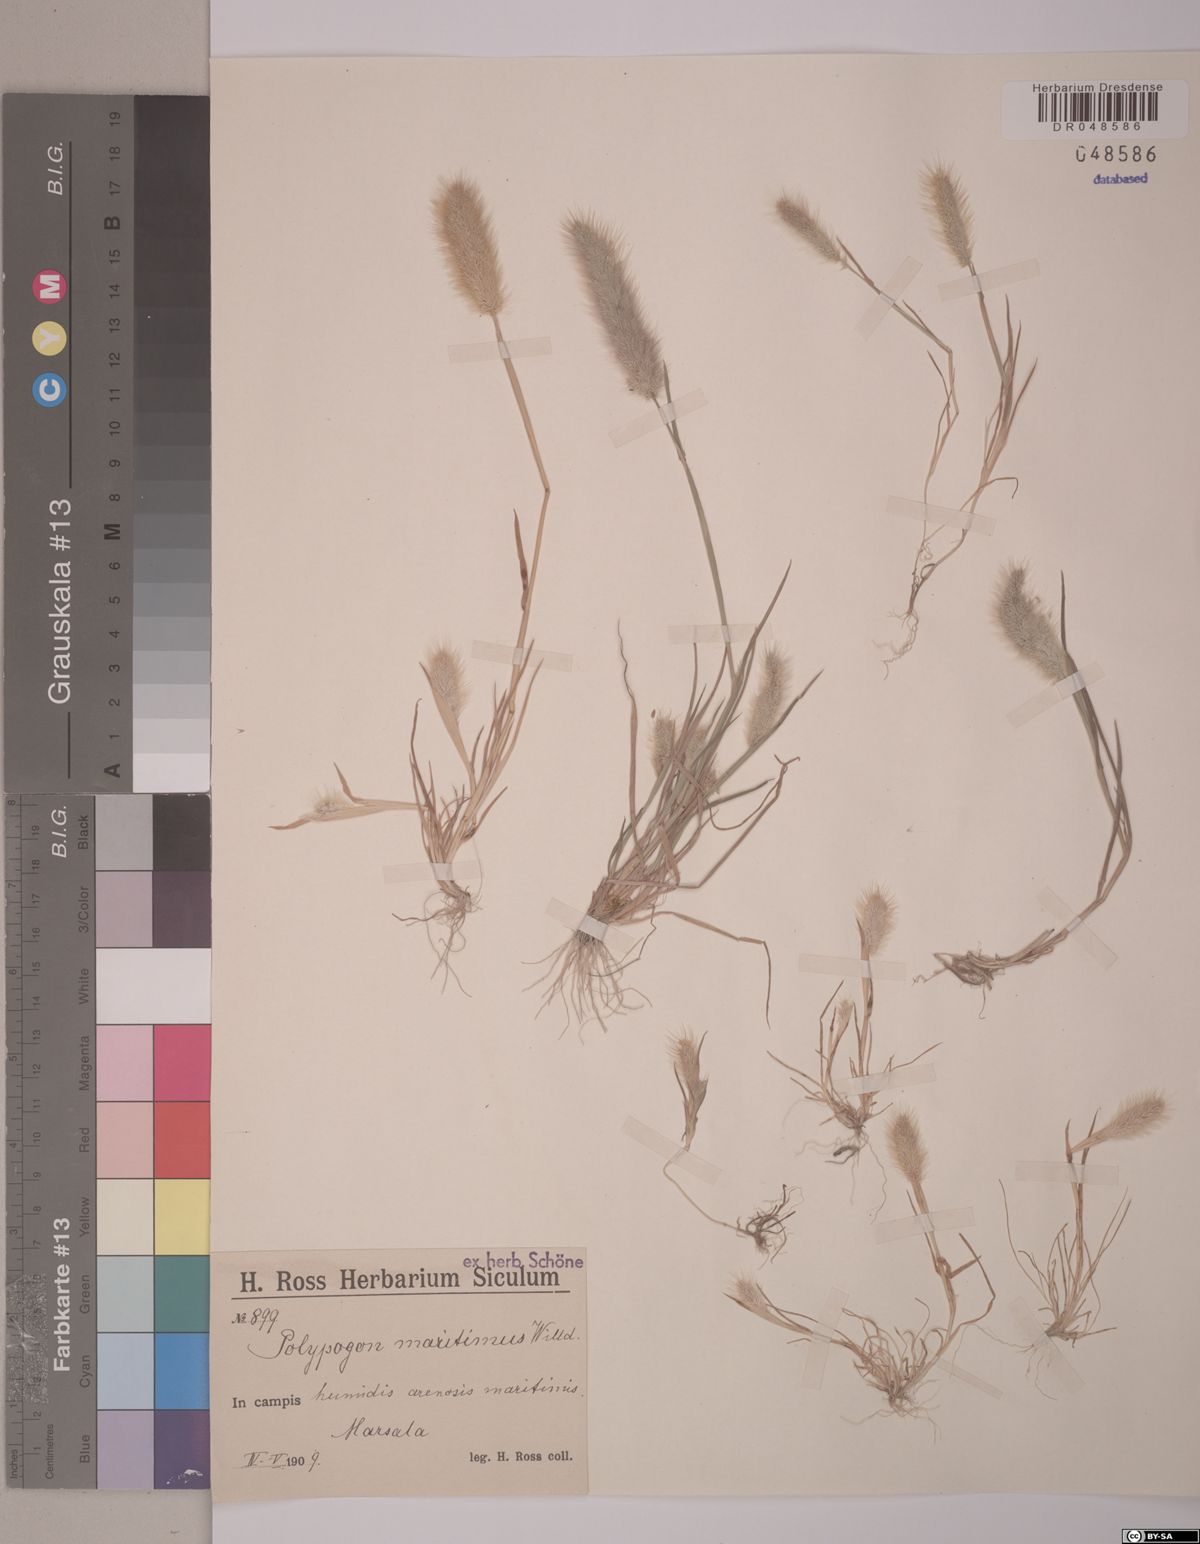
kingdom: Plantae
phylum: Tracheophyta
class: Liliopsida
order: Poales
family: Poaceae
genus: Polypogon
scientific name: Polypogon maritimus
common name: Mediterranean rabbitsfoot grass
